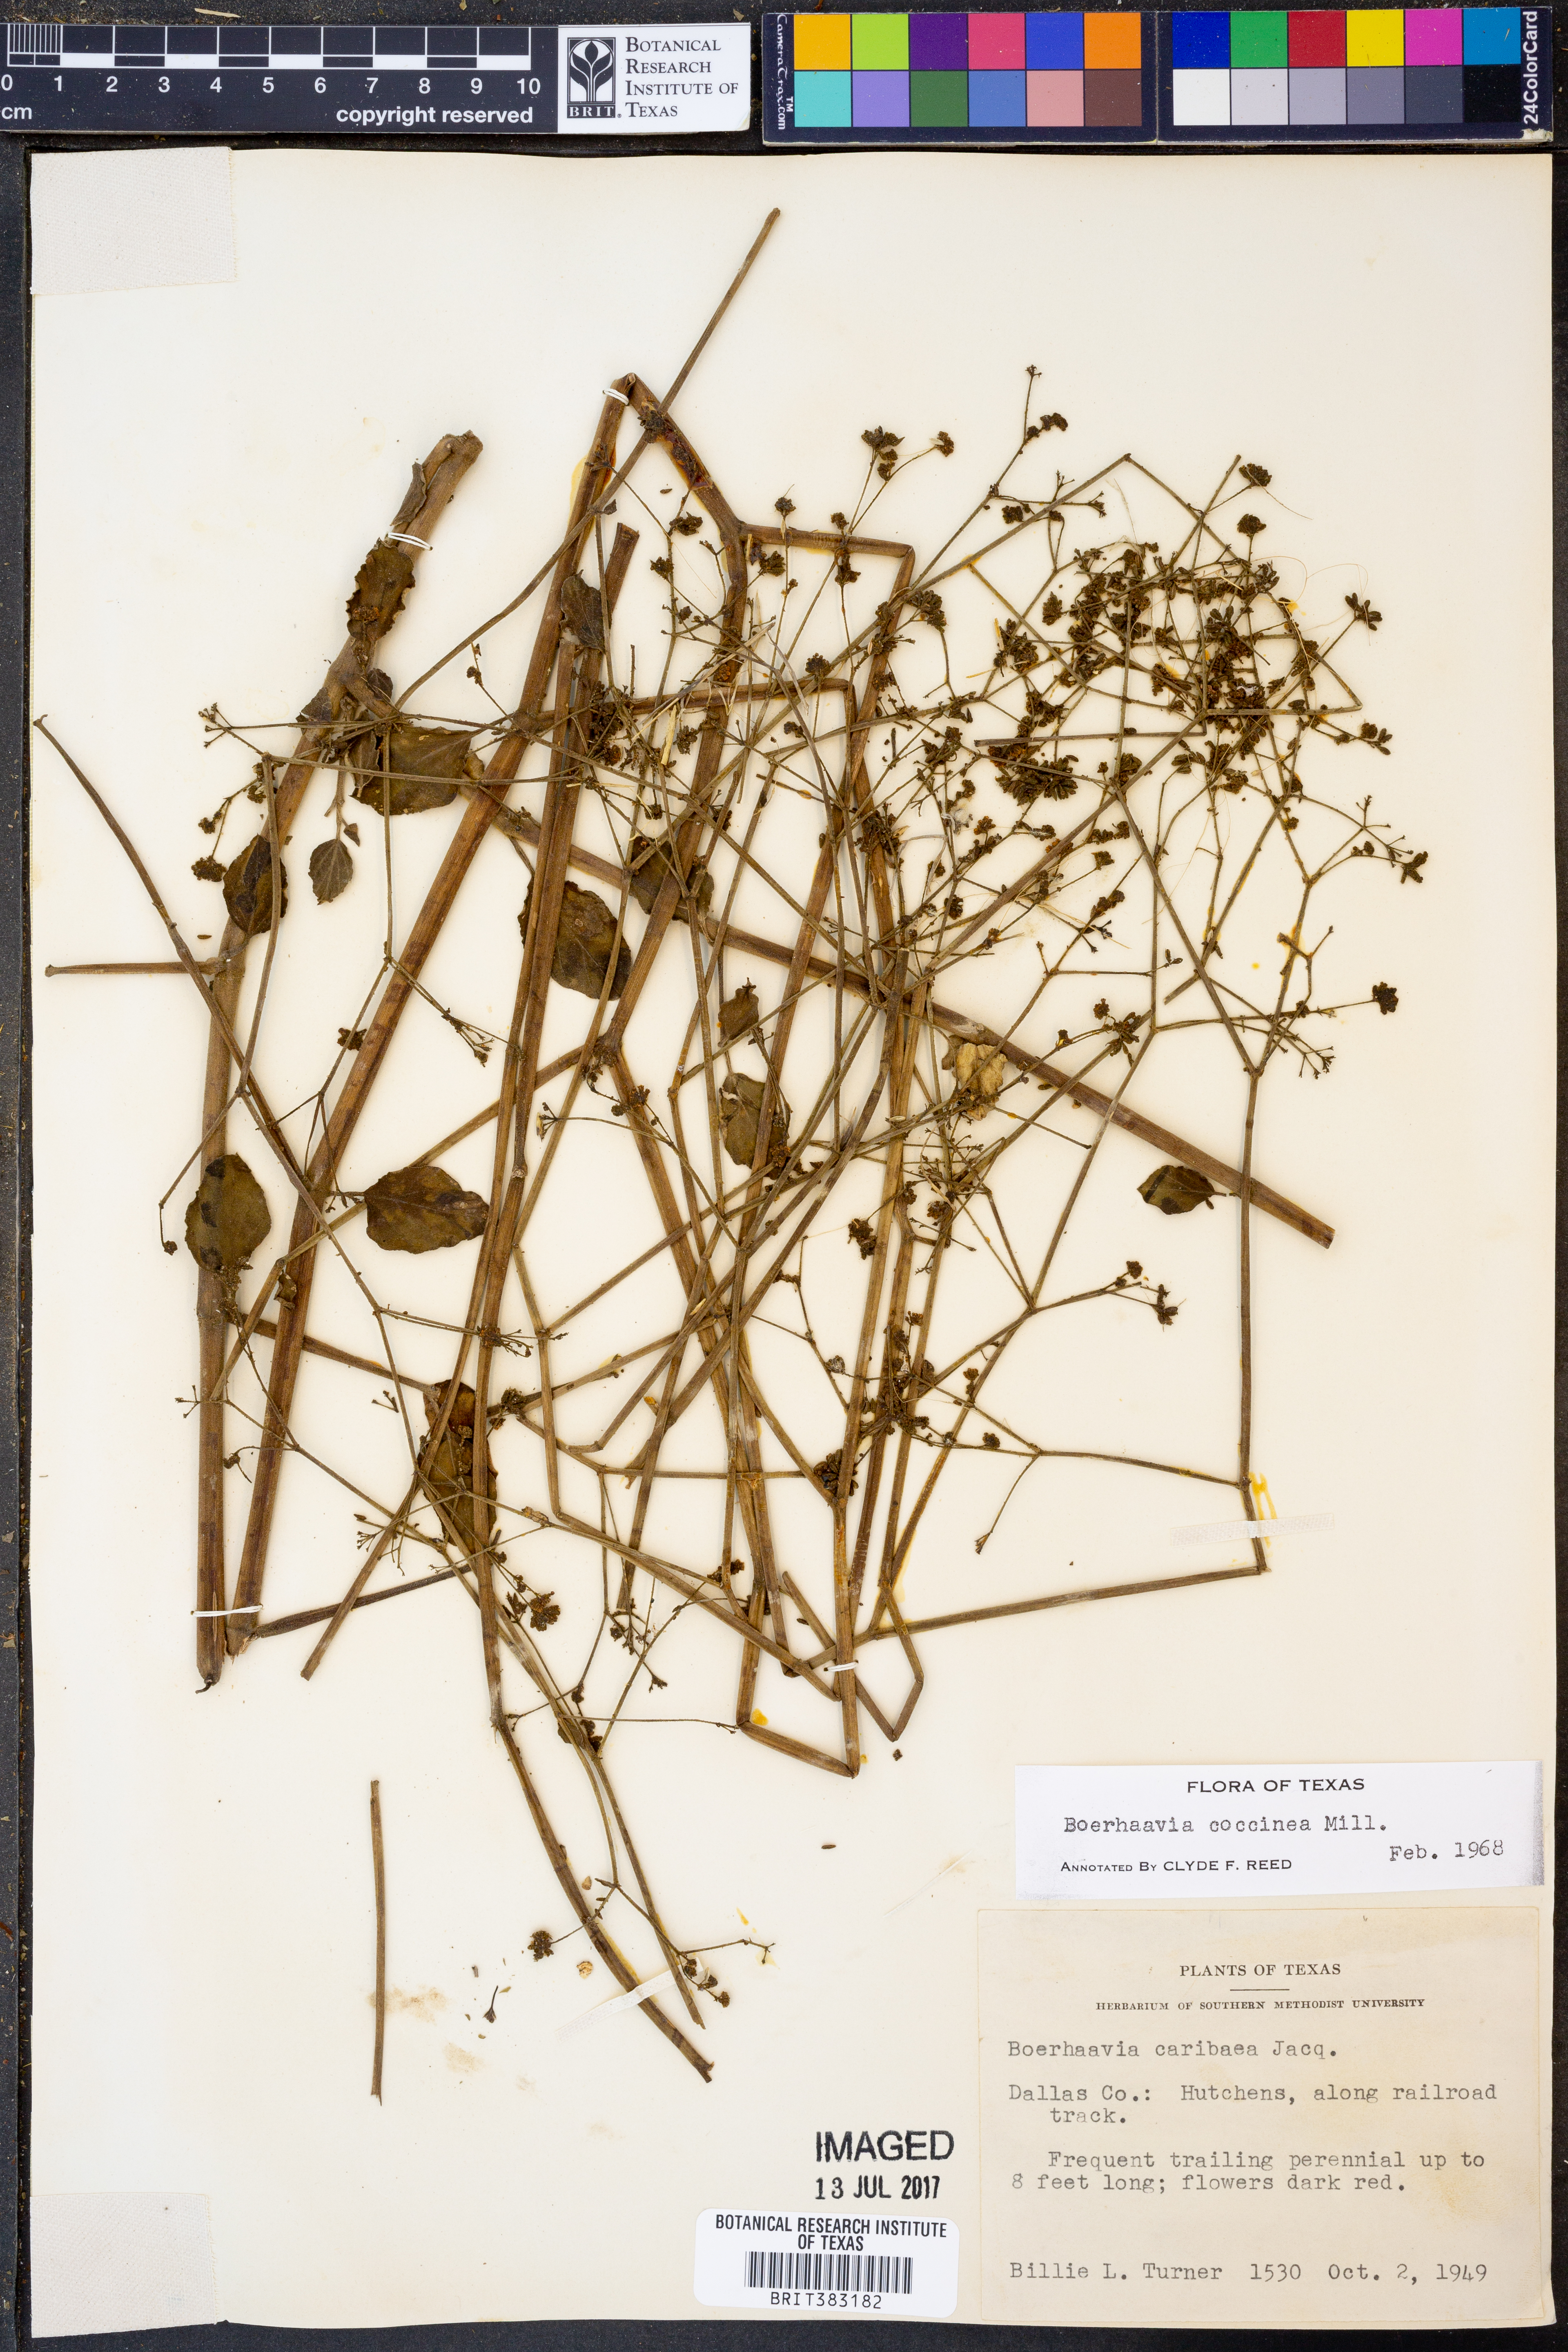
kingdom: Plantae
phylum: Tracheophyta
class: Magnoliopsida
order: Caryophyllales
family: Nyctaginaceae
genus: Boerhavia
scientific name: Boerhavia coccinea
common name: Scarlet spiderling
